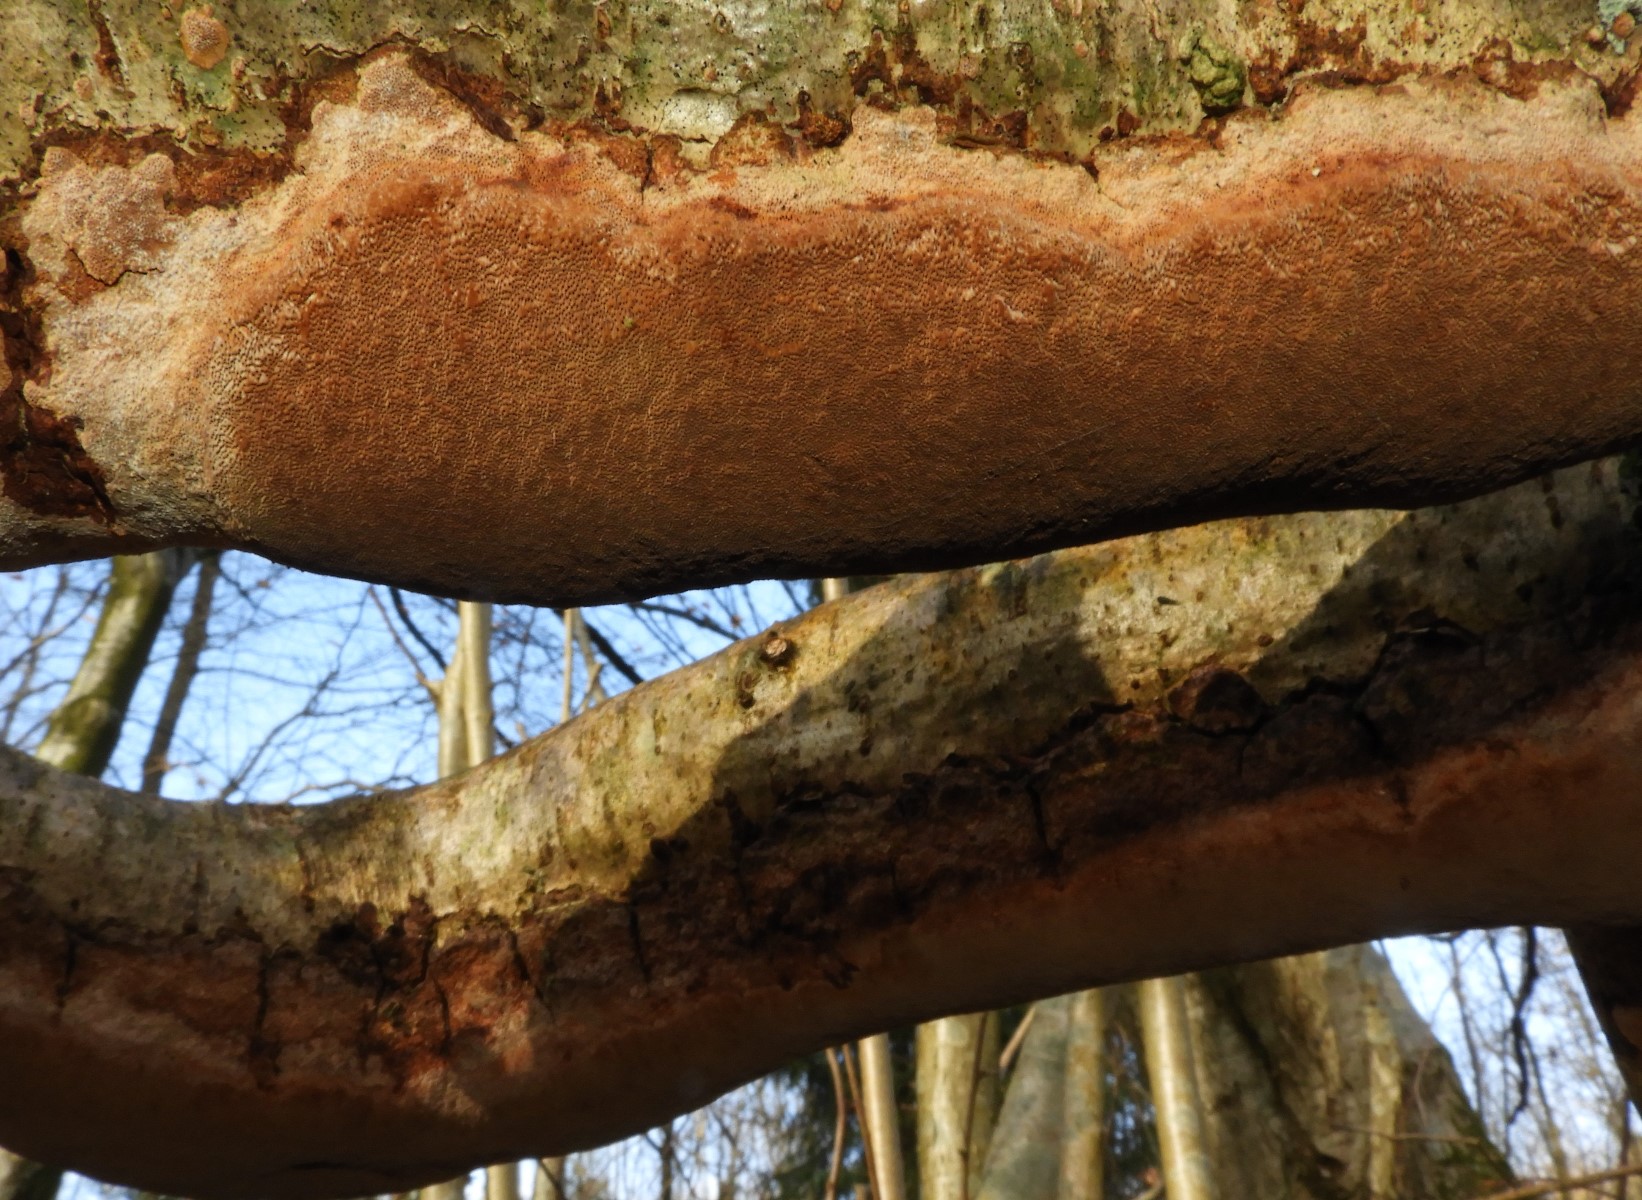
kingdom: Fungi
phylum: Basidiomycota
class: Agaricomycetes
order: Hymenochaetales
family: Hymenochaetaceae
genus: Fuscoporia
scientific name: Fuscoporia ferrea
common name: skorpe-ildporesvamp
